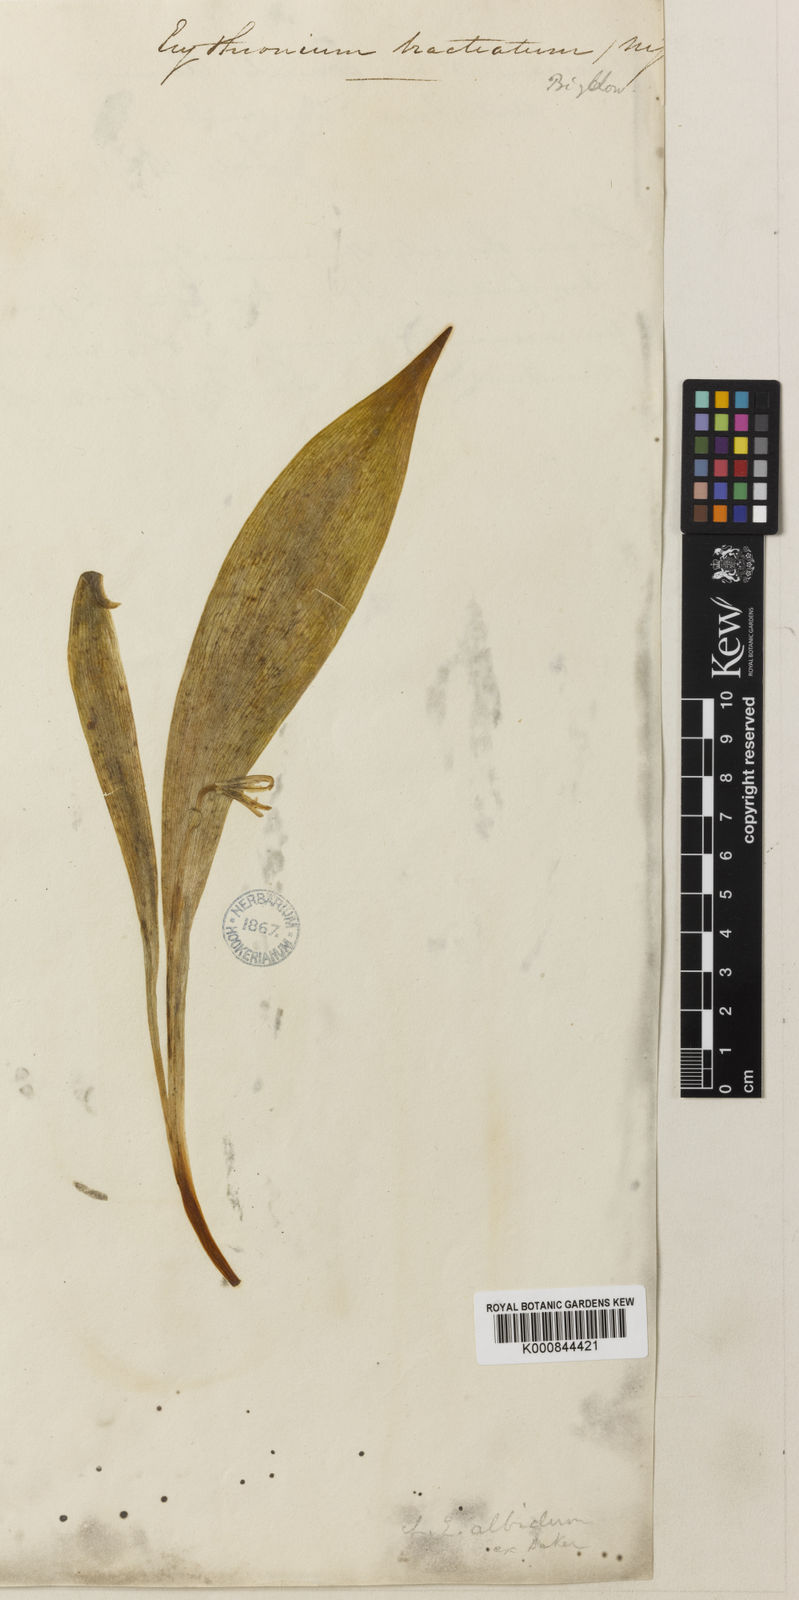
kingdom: Plantae
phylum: Tracheophyta
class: Liliopsida
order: Liliales
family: Liliaceae
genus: Erythronium
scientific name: Erythronium americanum
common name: Yellow adder's-tongue
